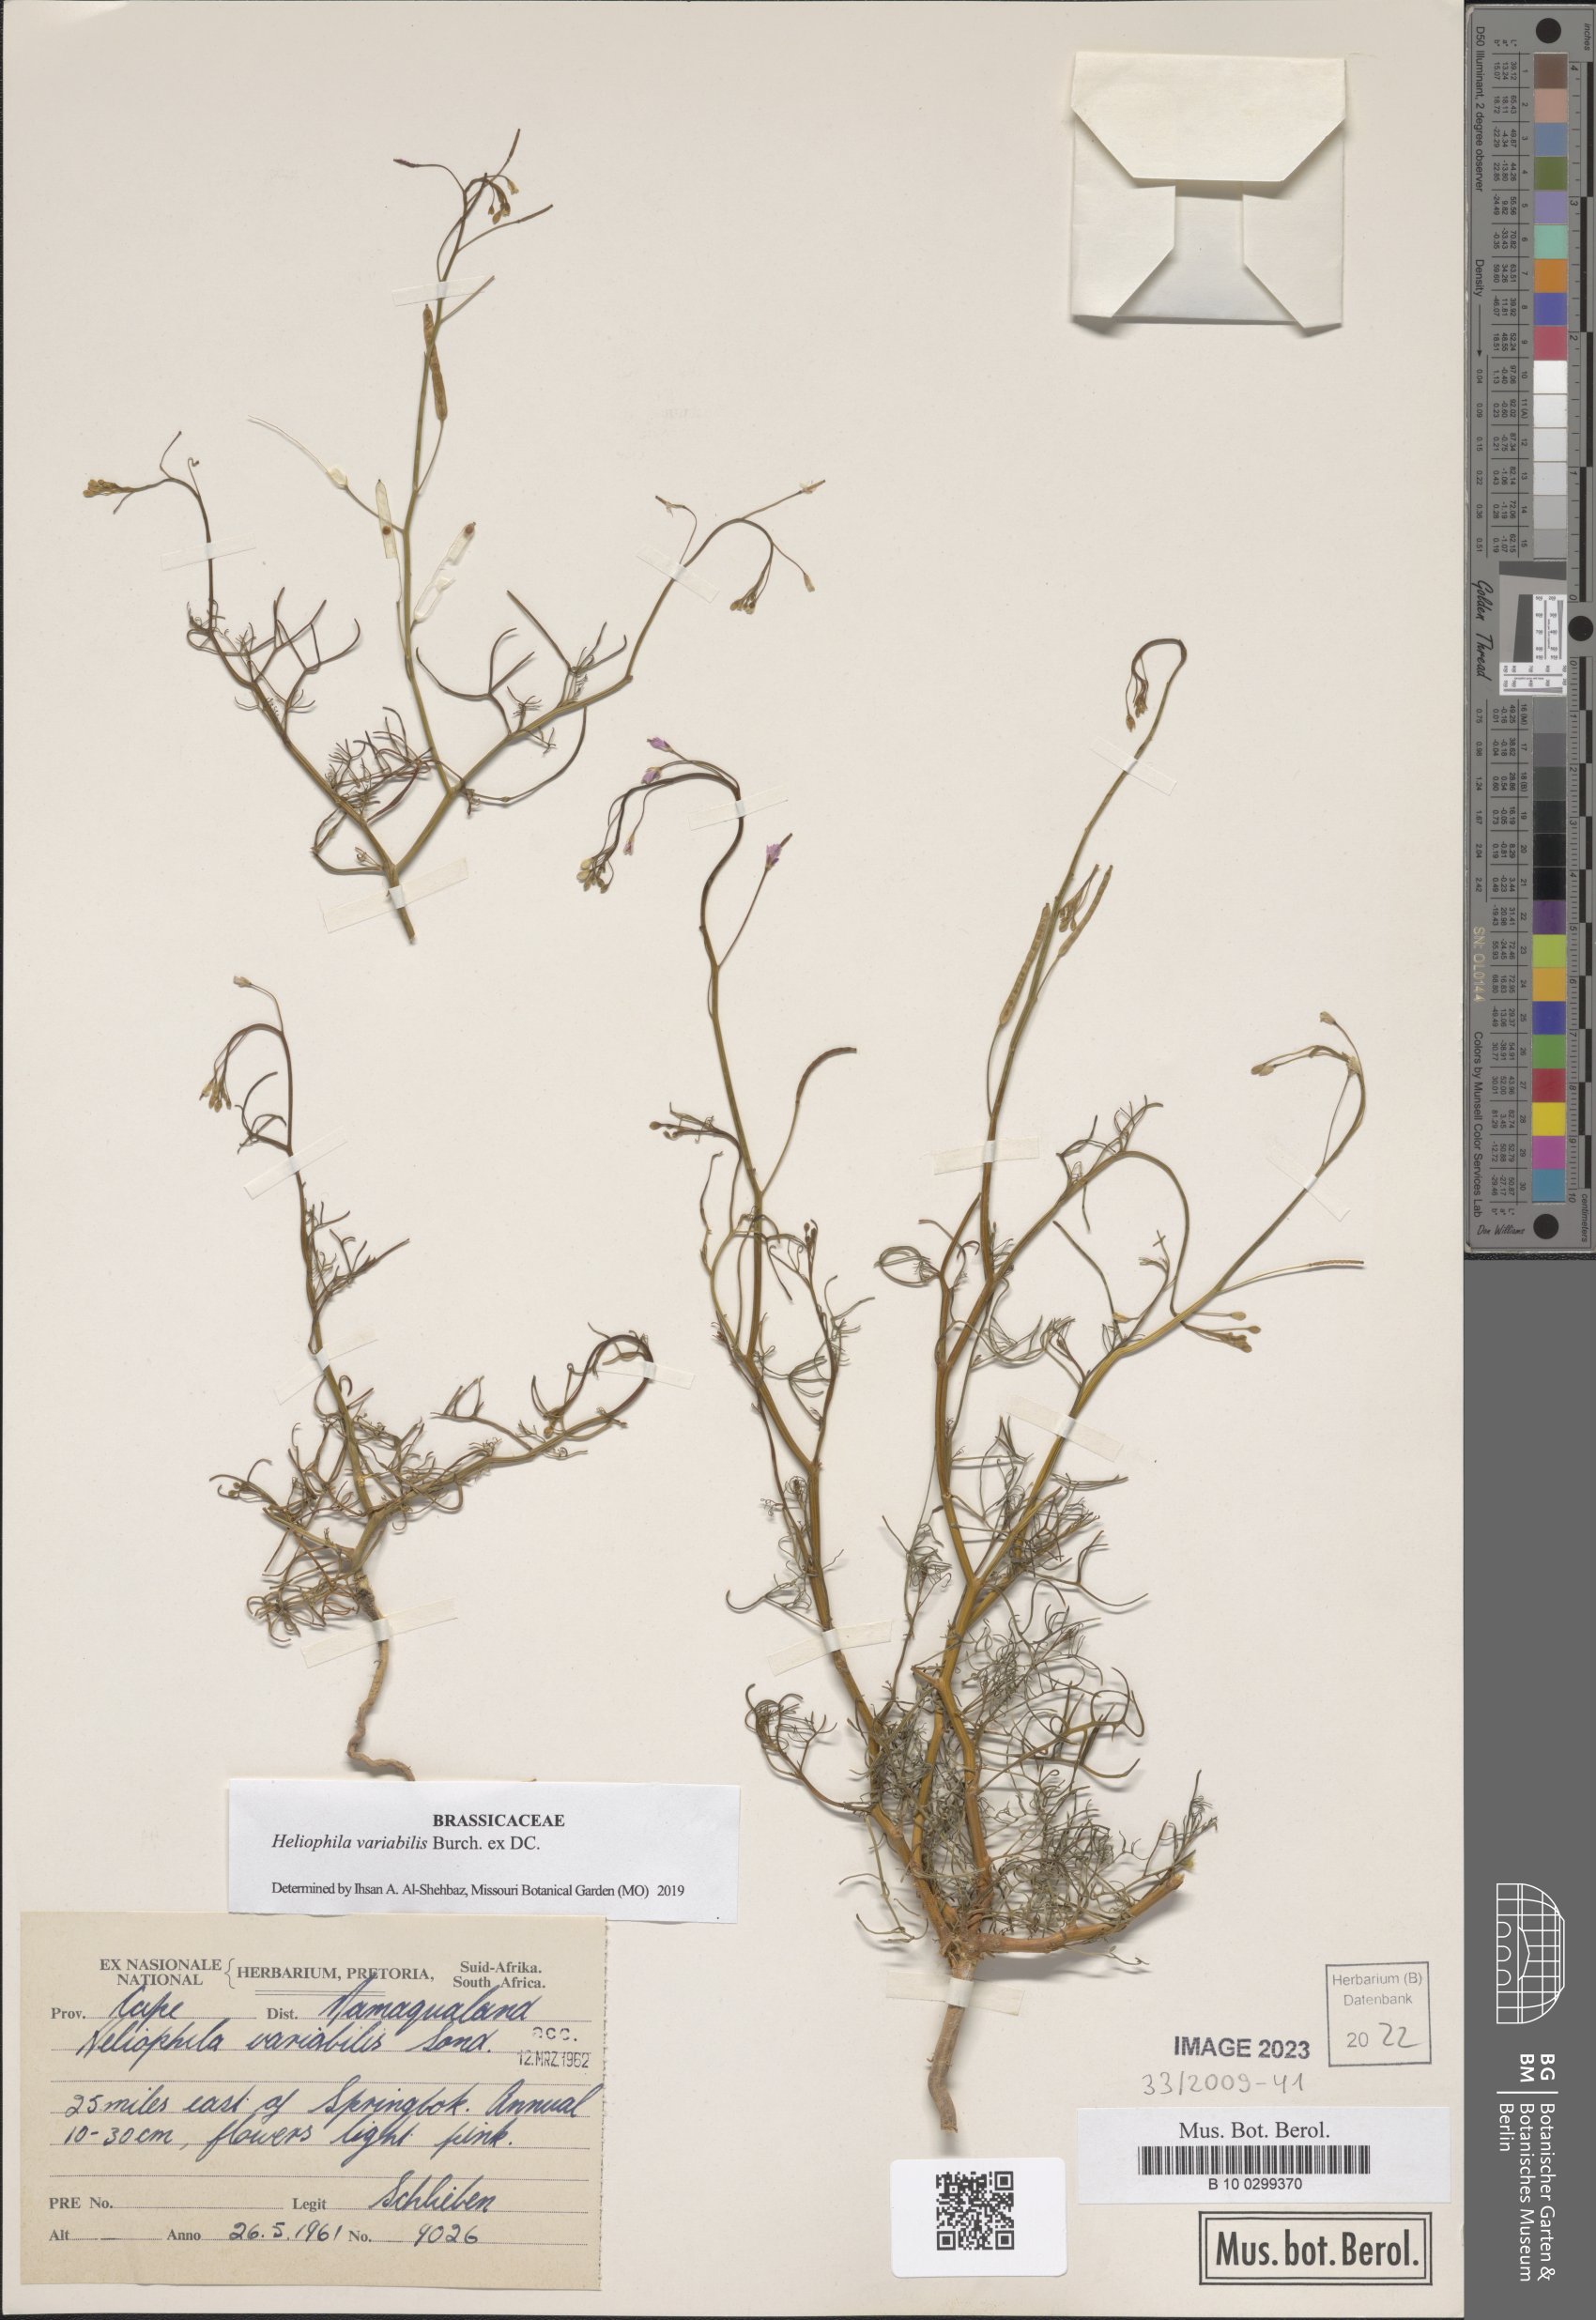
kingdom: Plantae
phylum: Tracheophyta
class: Magnoliopsida
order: Brassicales
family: Brassicaceae
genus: Heliophila
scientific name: Heliophila variabilis
